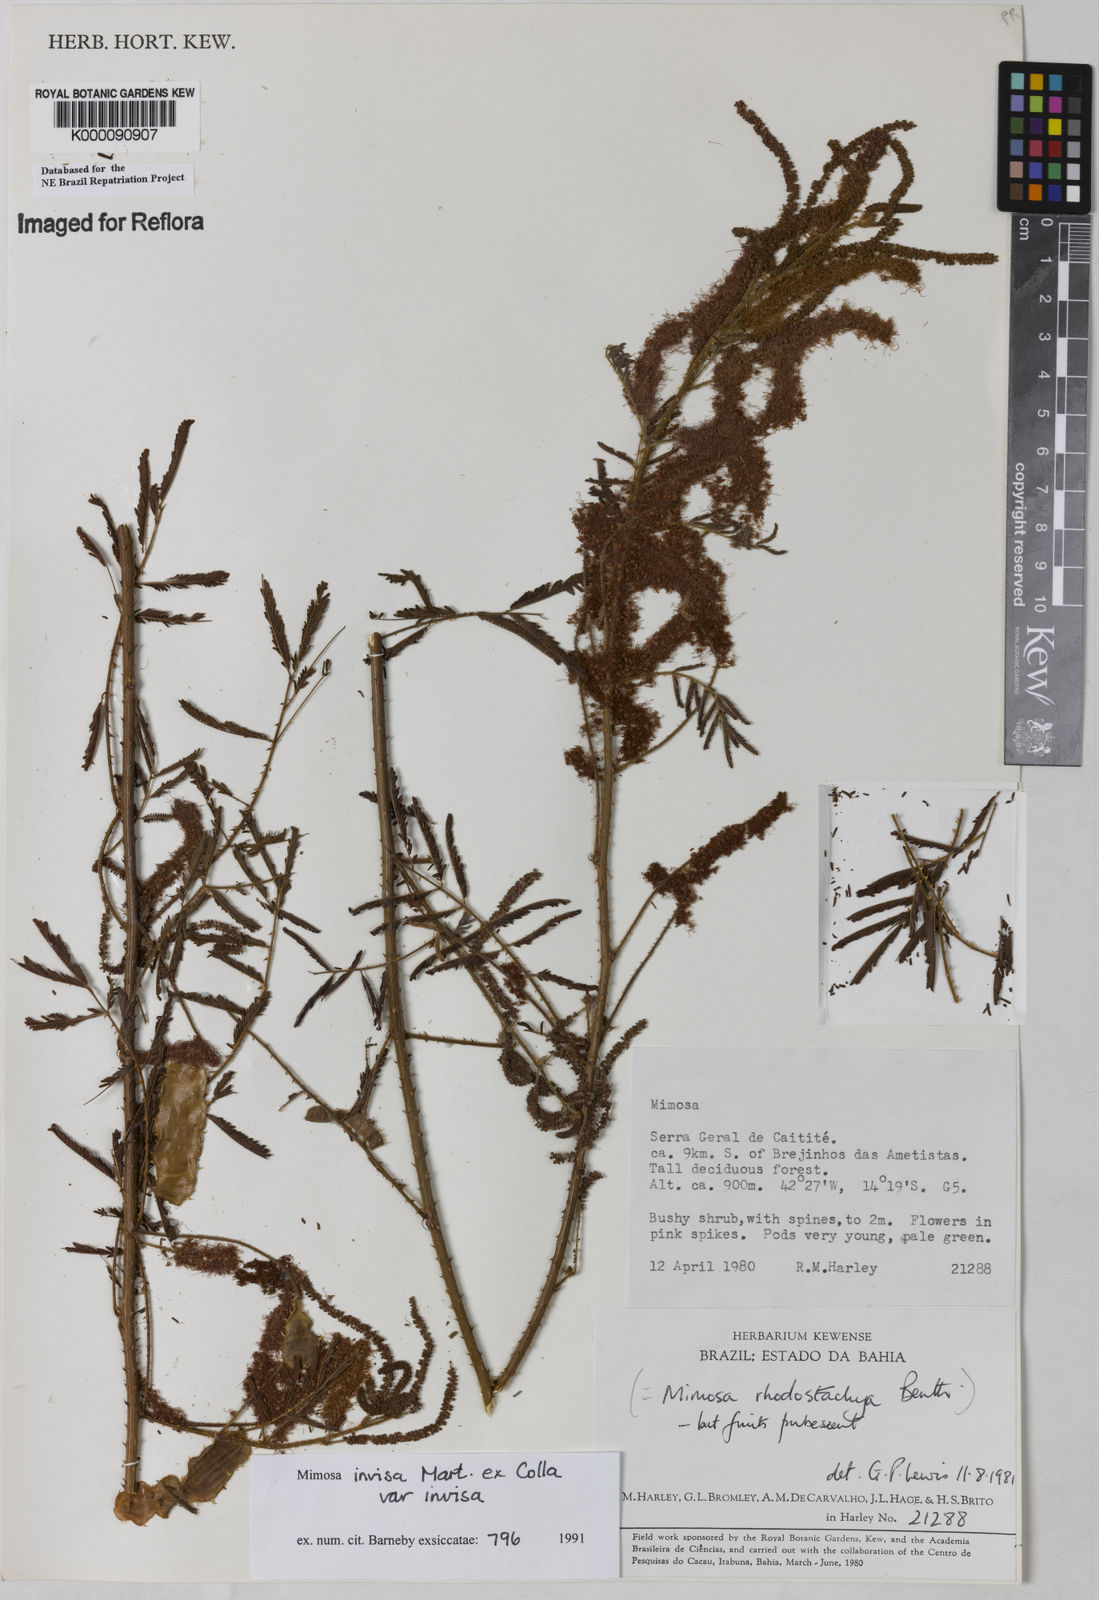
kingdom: Plantae
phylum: Tracheophyta
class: Magnoliopsida
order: Fabales
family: Fabaceae
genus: Mimosa
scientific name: Mimosa invisa
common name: Creeping sensitive-plant
